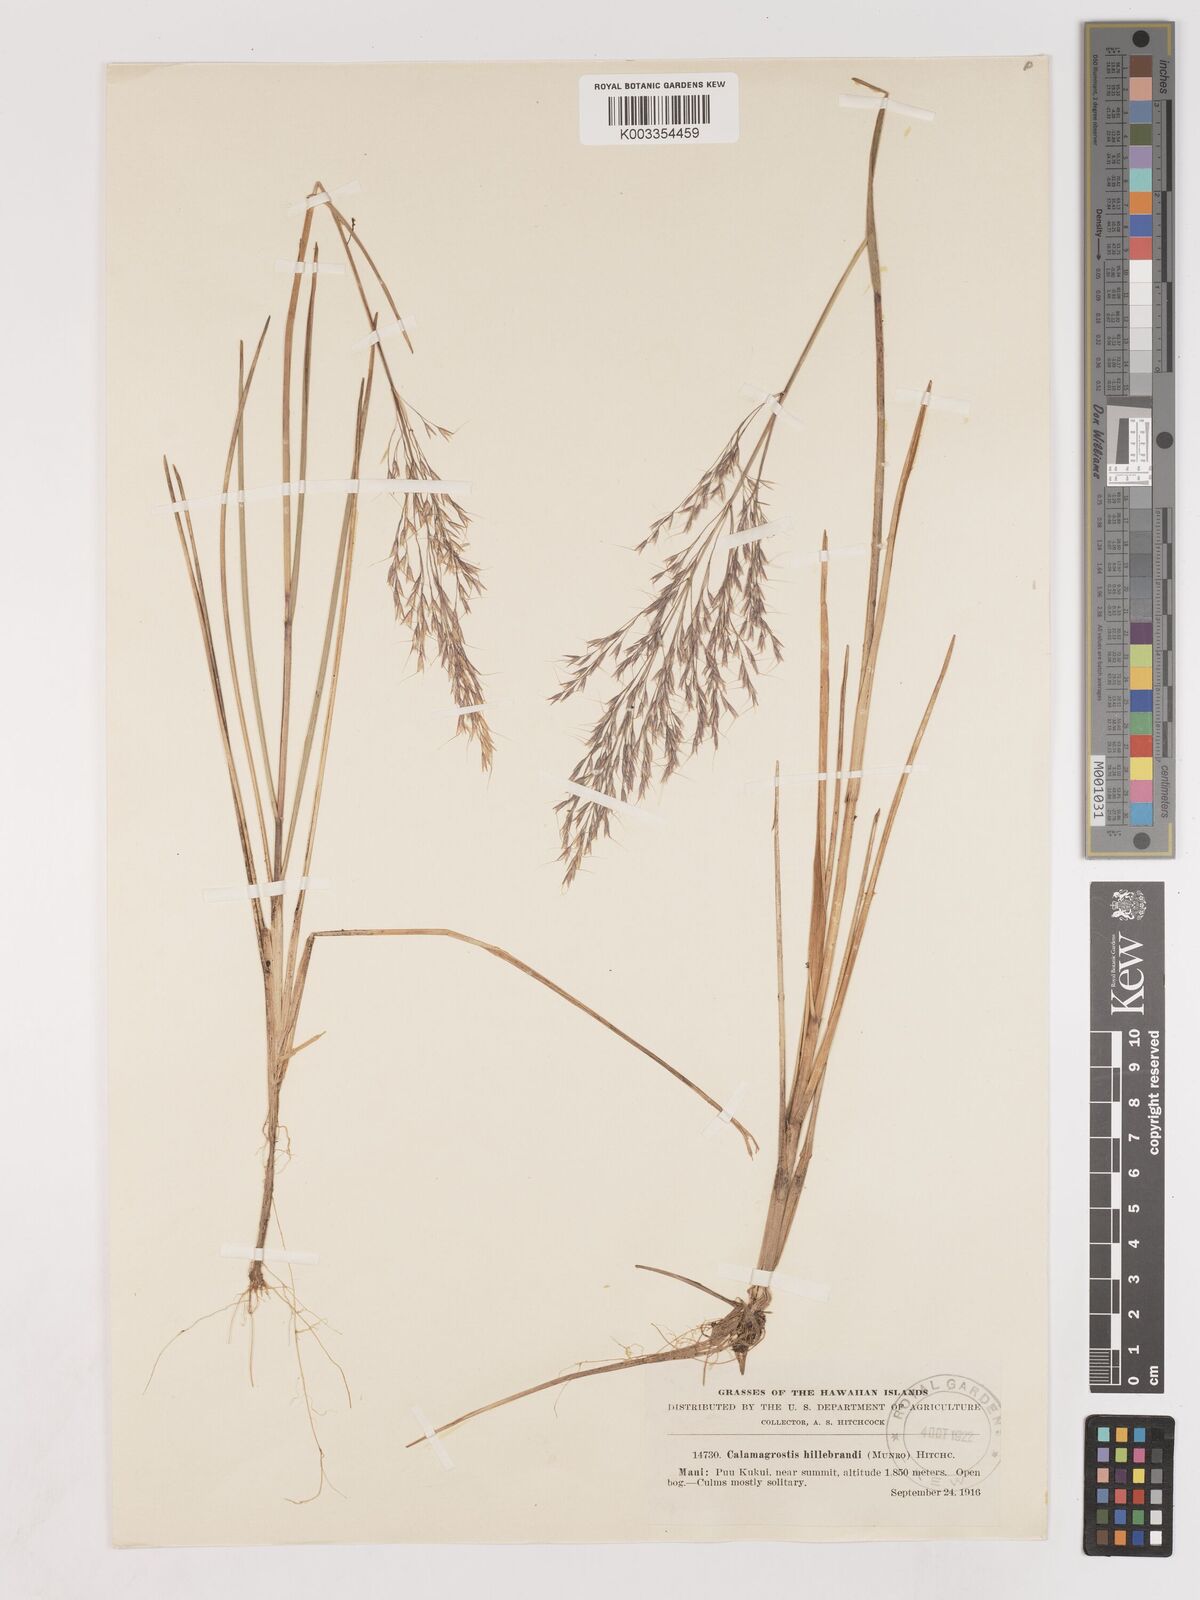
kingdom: Plantae
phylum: Tracheophyta
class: Liliopsida
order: Poales
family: Poaceae
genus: Calamagrostis
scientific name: Calamagrostis hillebrandii
